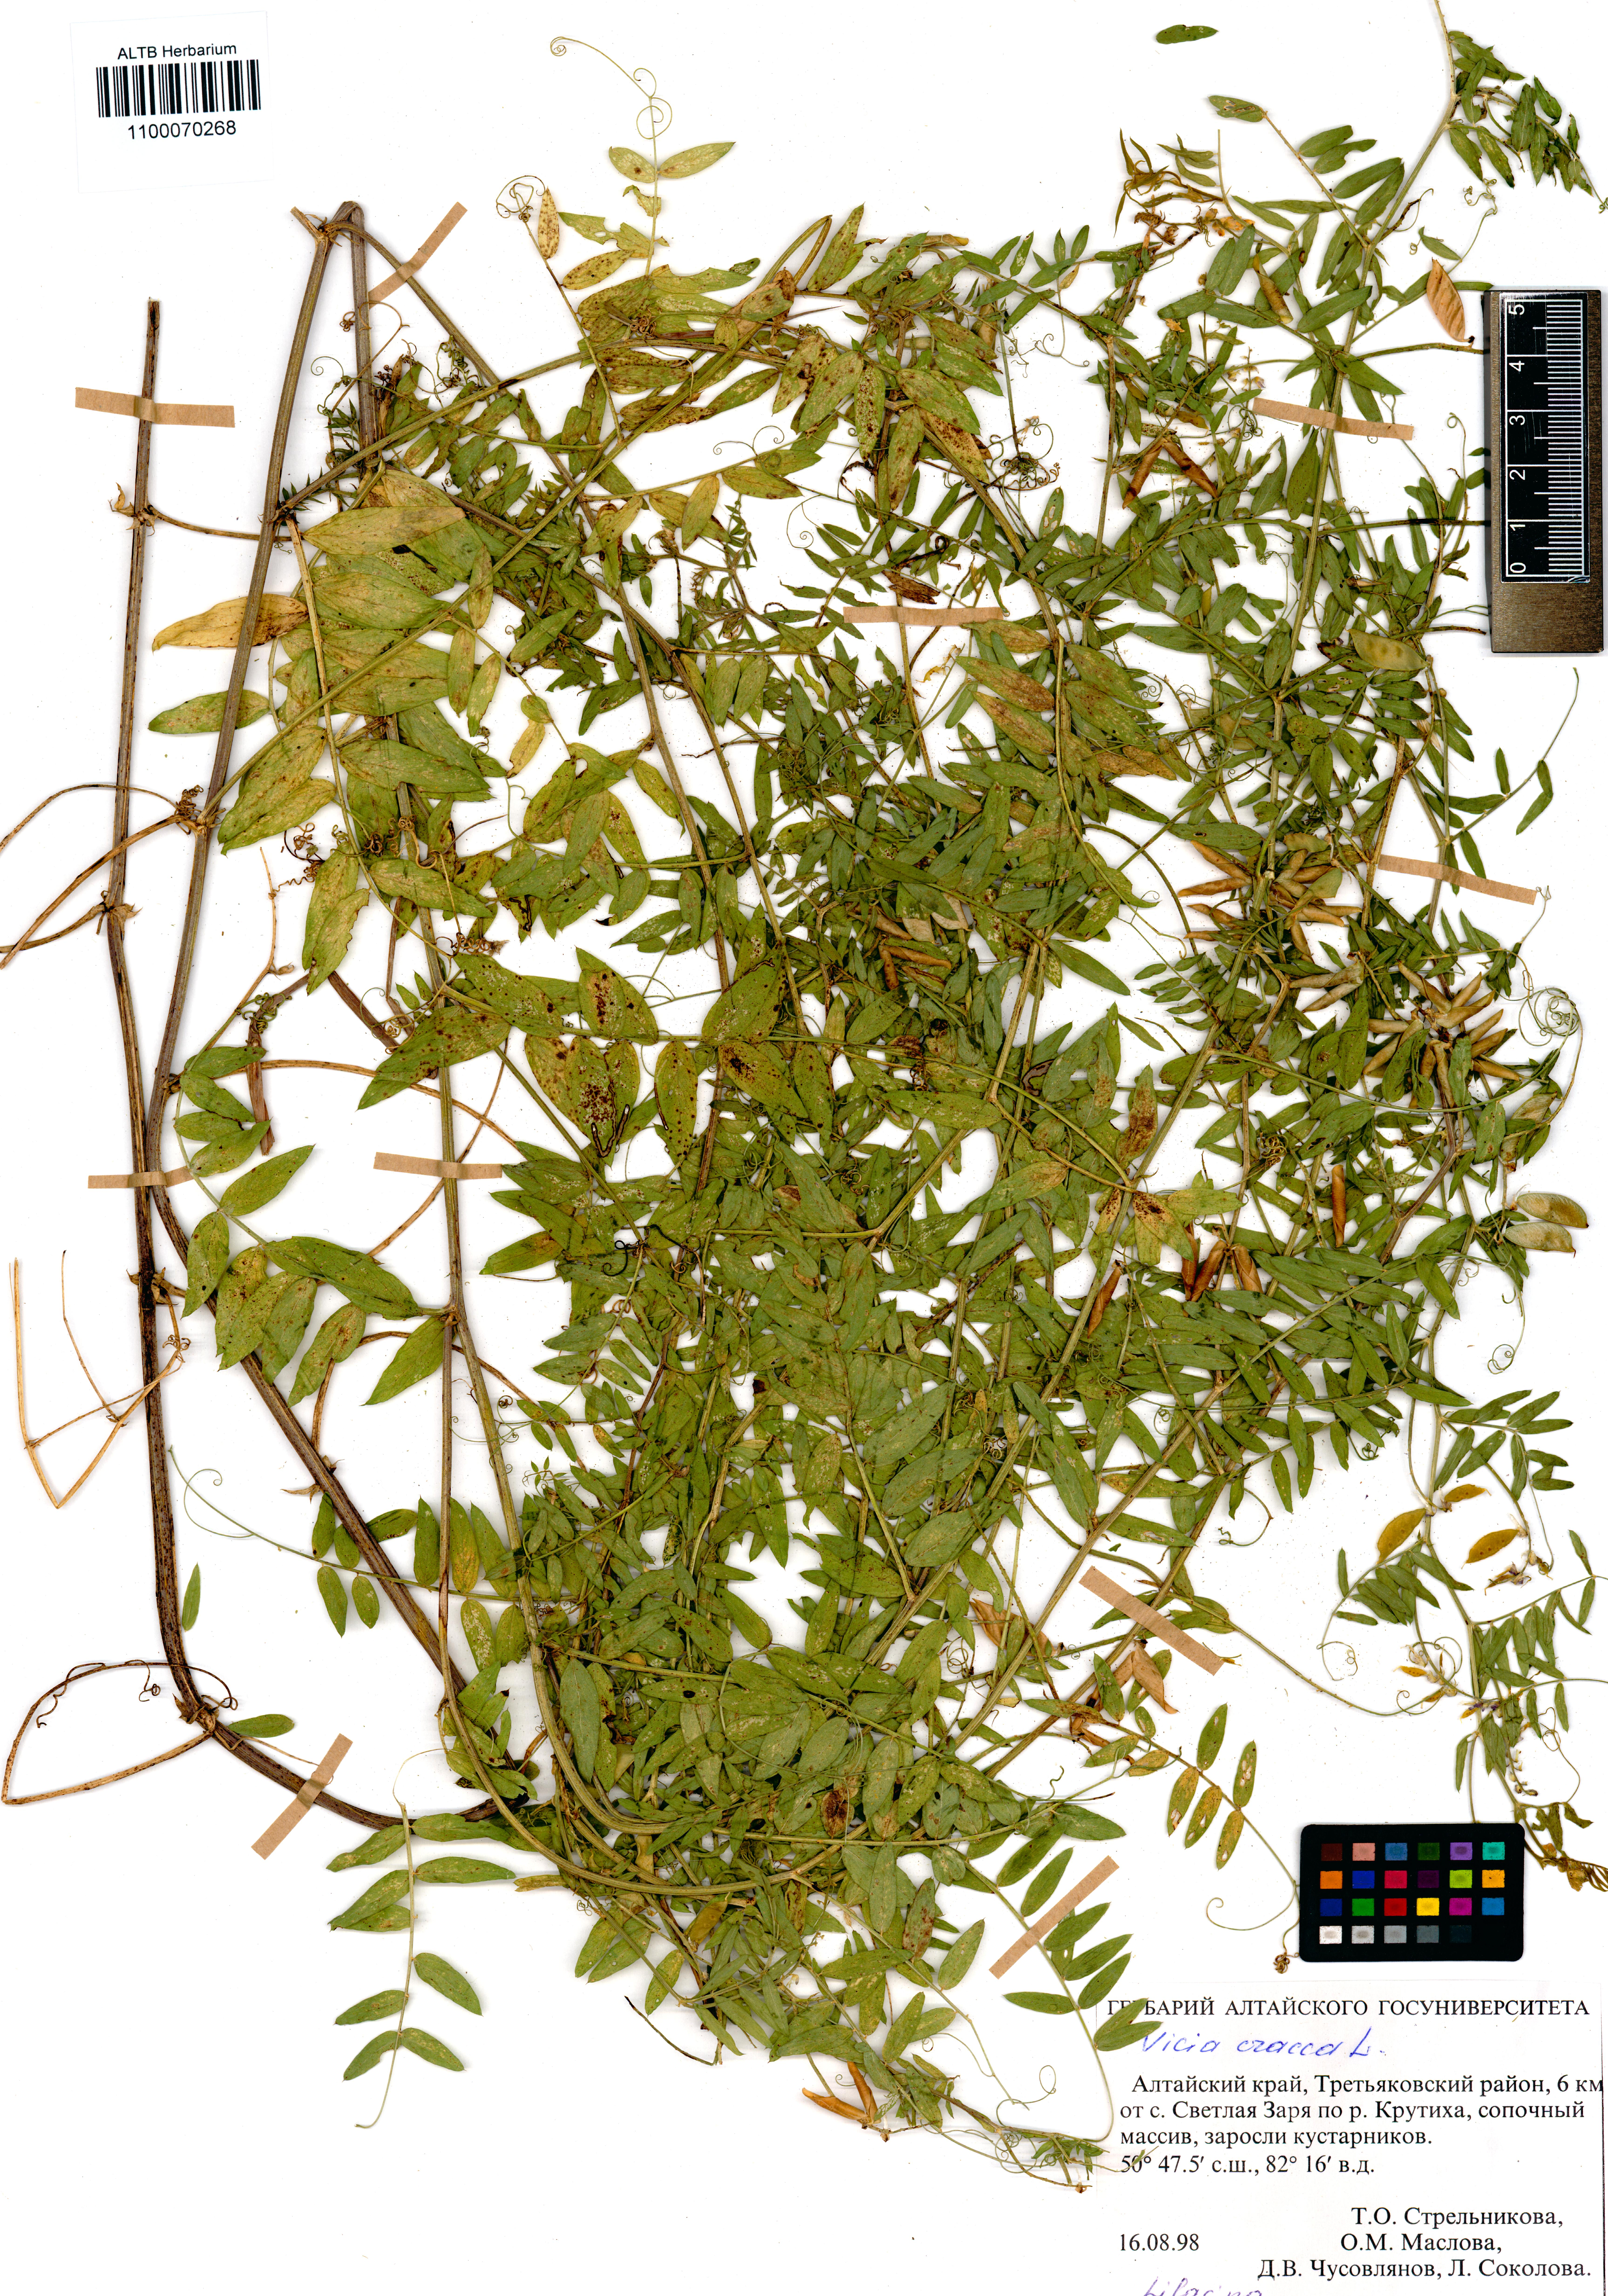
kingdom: Plantae
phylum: Tracheophyta
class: Magnoliopsida
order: Fabales
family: Fabaceae
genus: Vicia
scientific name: Vicia cracca
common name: Bird vetch
